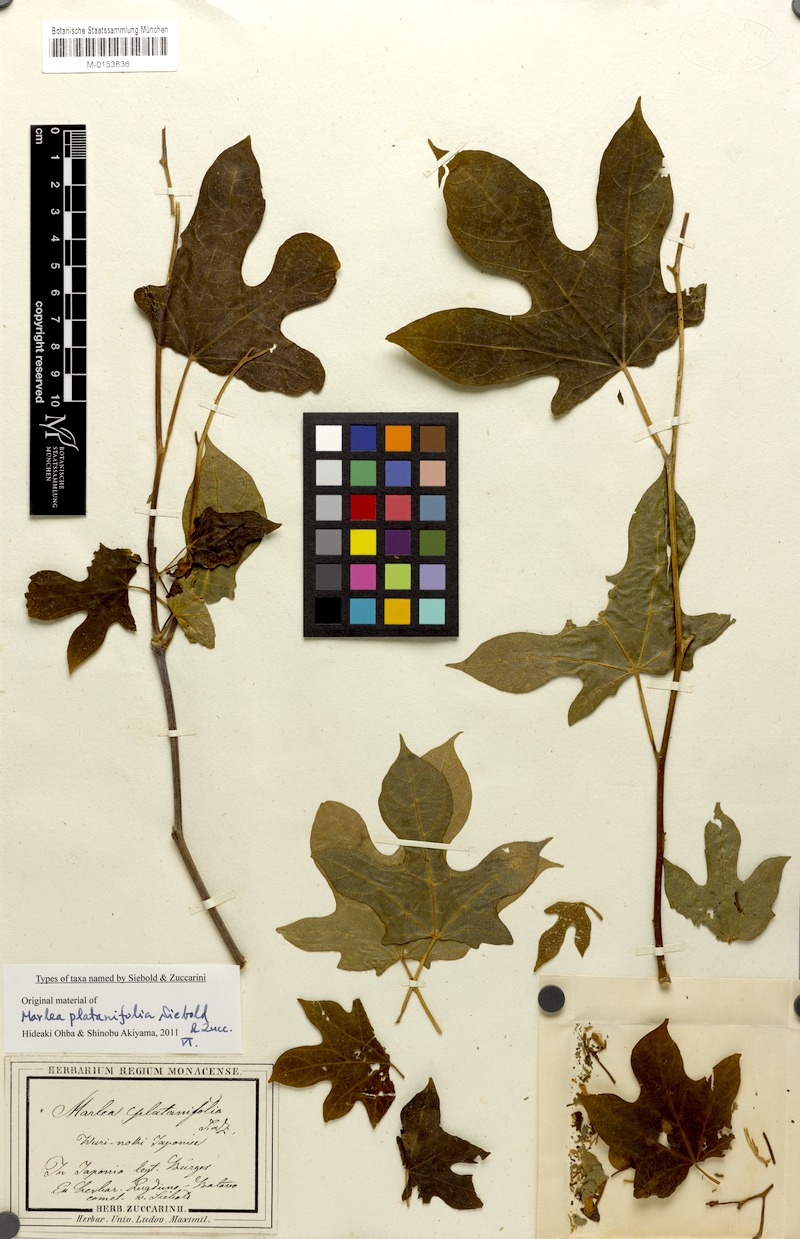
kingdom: Plantae
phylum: Tracheophyta
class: Magnoliopsida
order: Cornales
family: Cornaceae
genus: Alangium
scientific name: Alangium platanifolium
